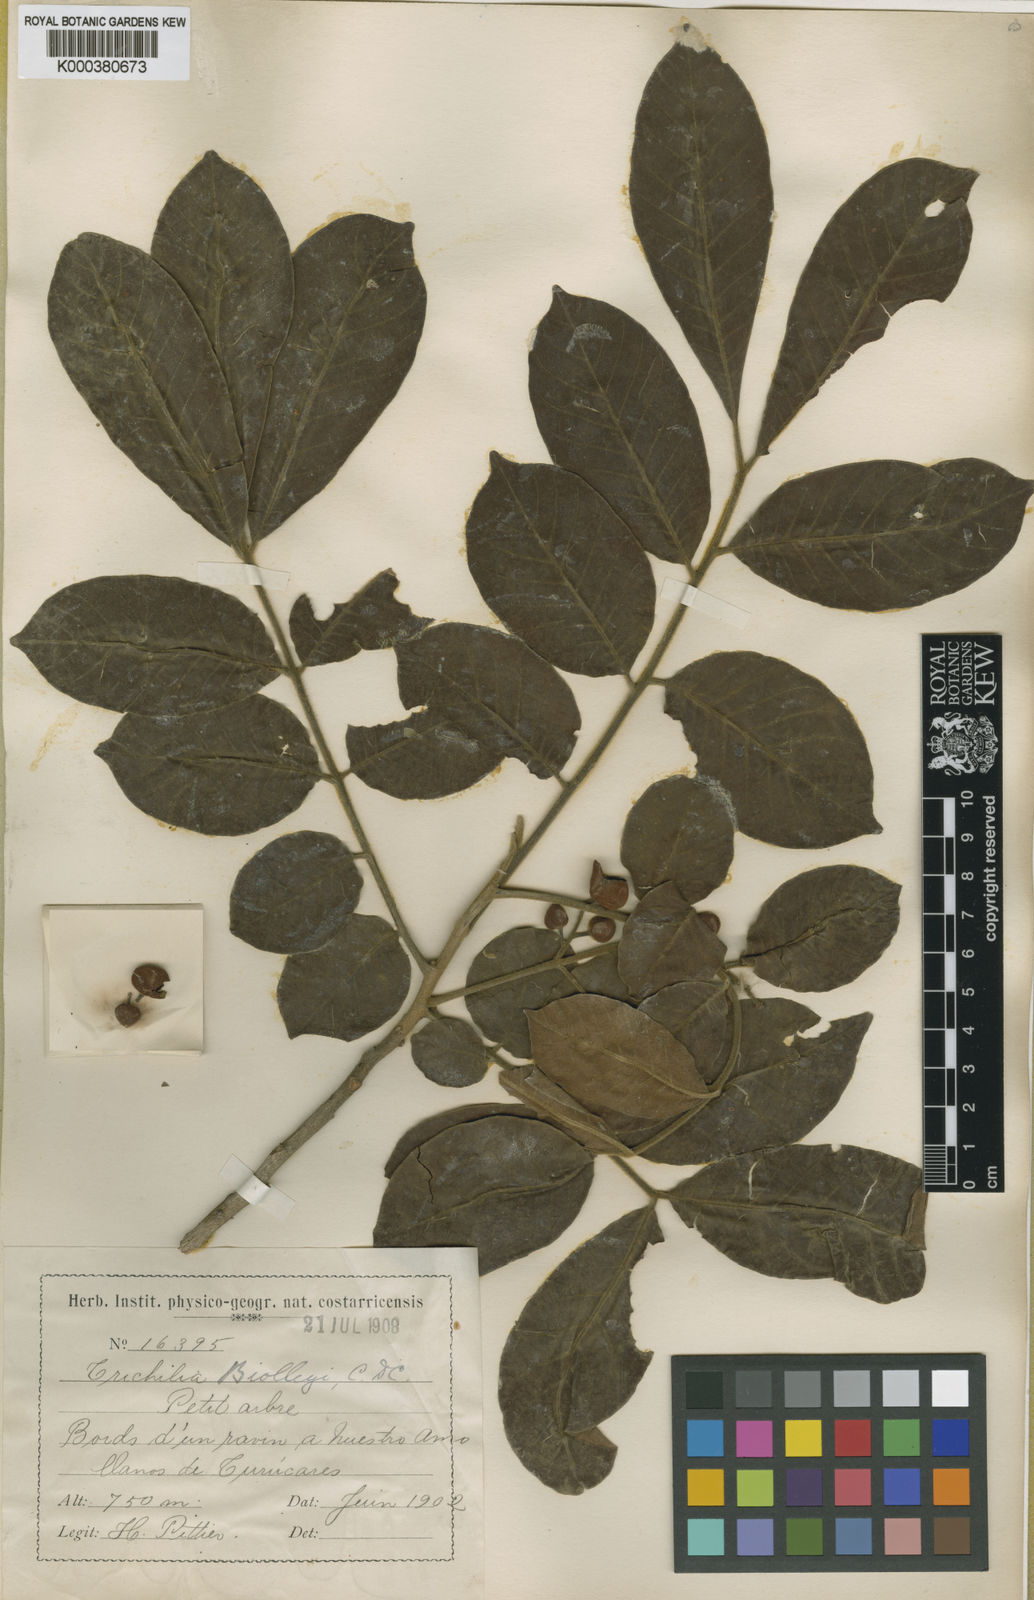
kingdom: Plantae
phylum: Tracheophyta
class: Magnoliopsida
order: Sapindales
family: Meliaceae
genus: Trichilia
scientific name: Trichilia martiana
